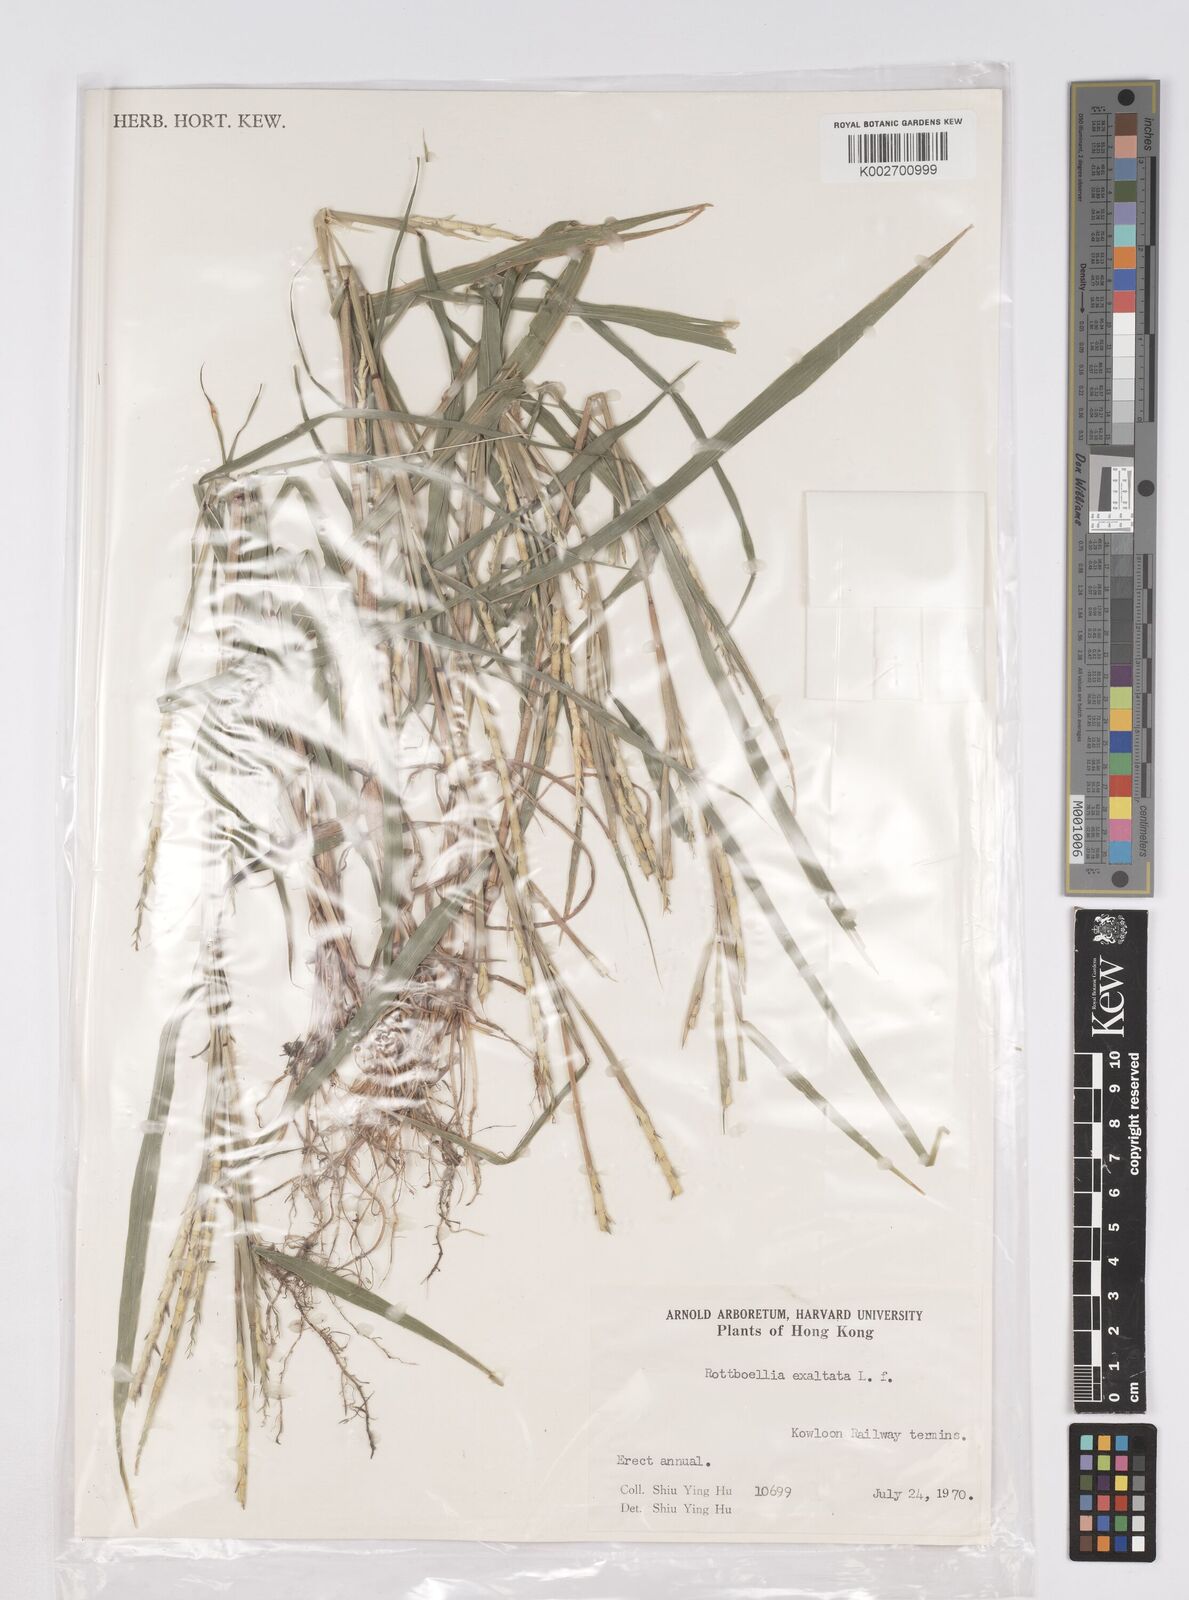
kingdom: Plantae
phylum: Tracheophyta
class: Liliopsida
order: Poales
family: Poaceae
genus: Rottboellia
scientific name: Rottboellia cochinchinensis
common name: Itchgrass
